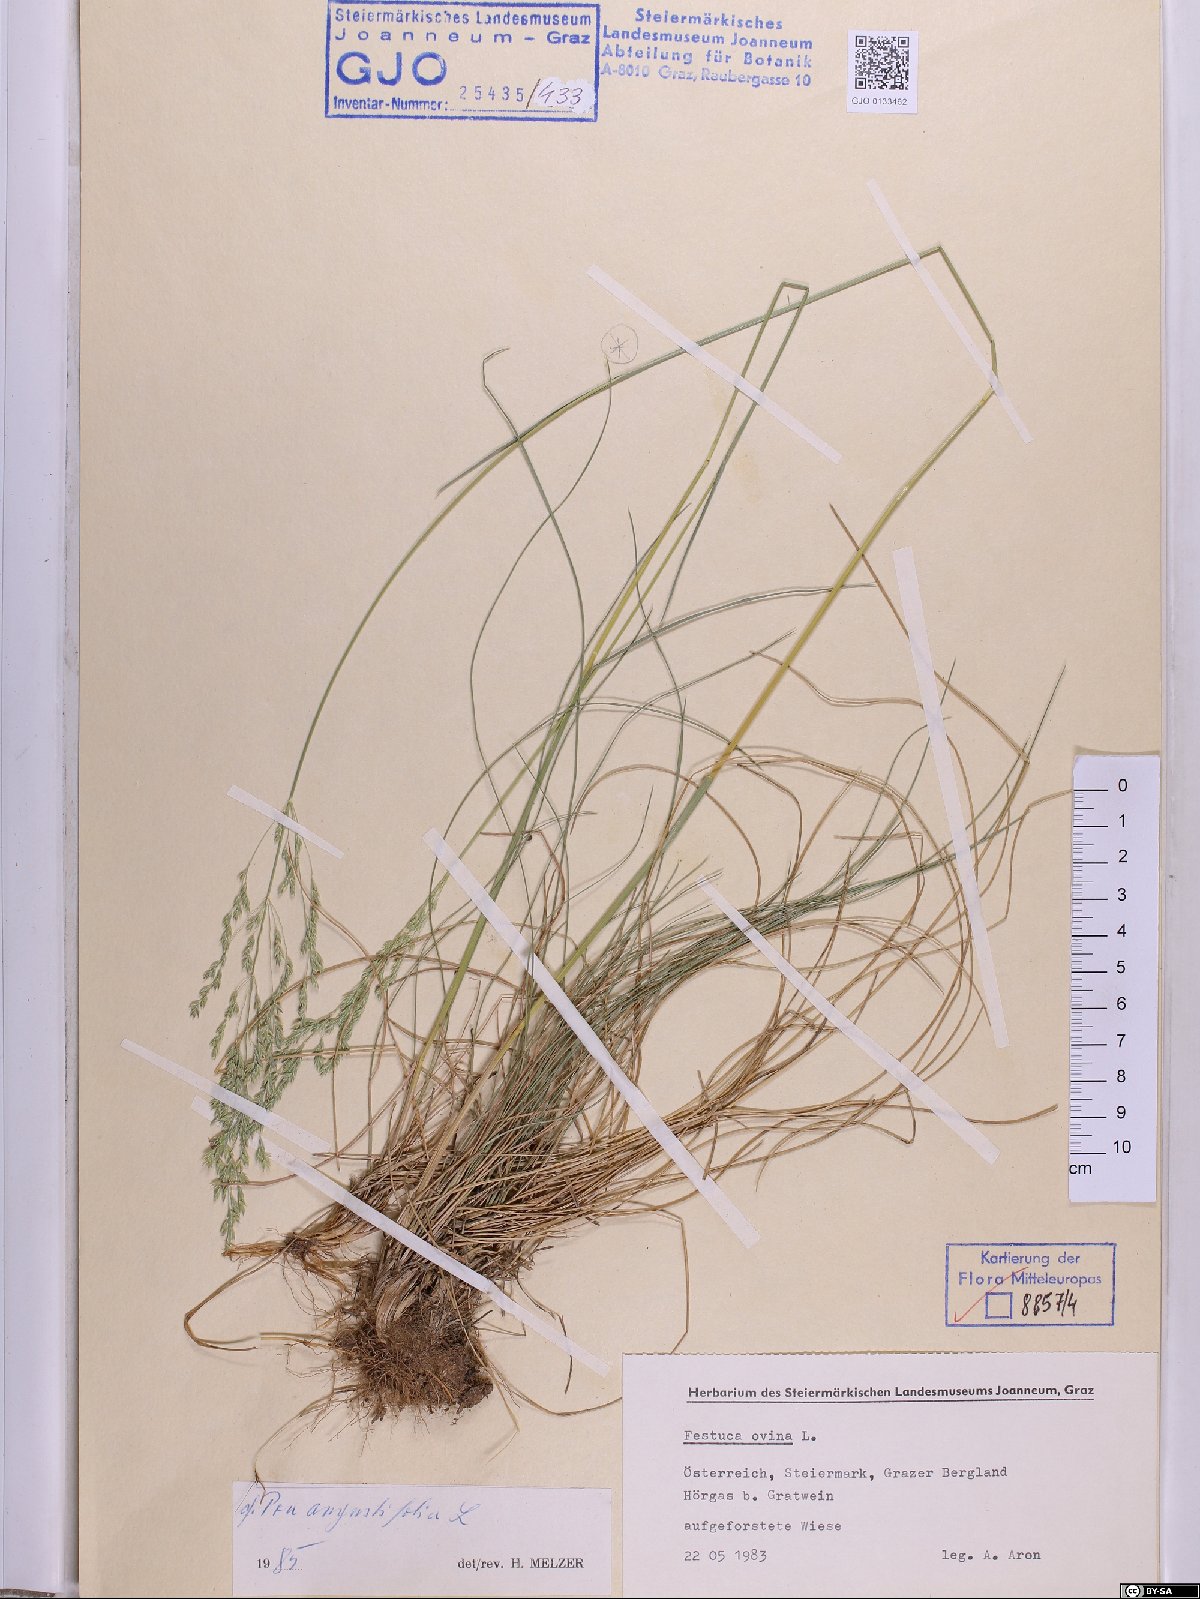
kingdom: Plantae
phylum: Tracheophyta
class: Liliopsida
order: Poales
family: Poaceae
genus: Poa
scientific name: Poa angustifolia
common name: Narrow-leaved meadow-grass
